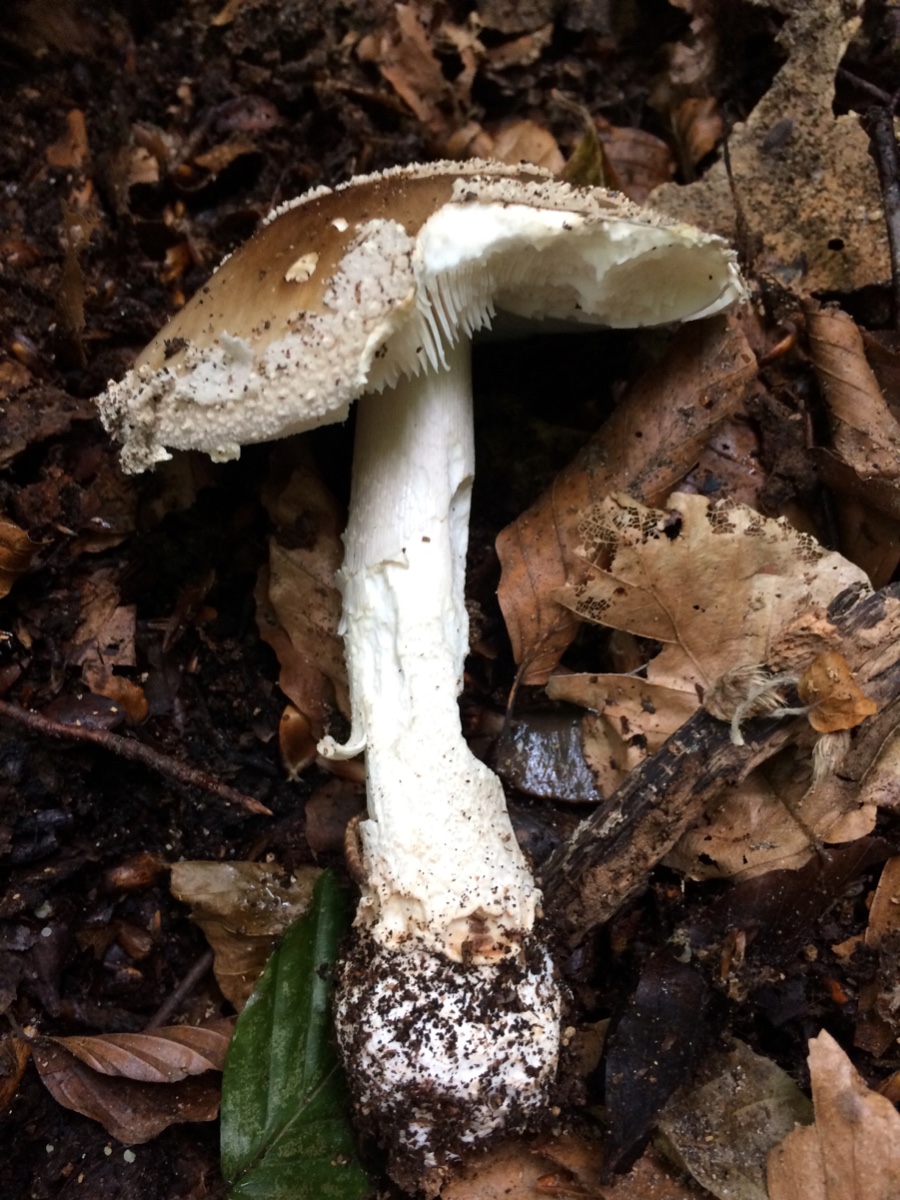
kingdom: Fungi
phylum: Basidiomycota
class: Agaricomycetes
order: Agaricales
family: Amanitaceae
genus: Amanita
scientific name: Amanita
